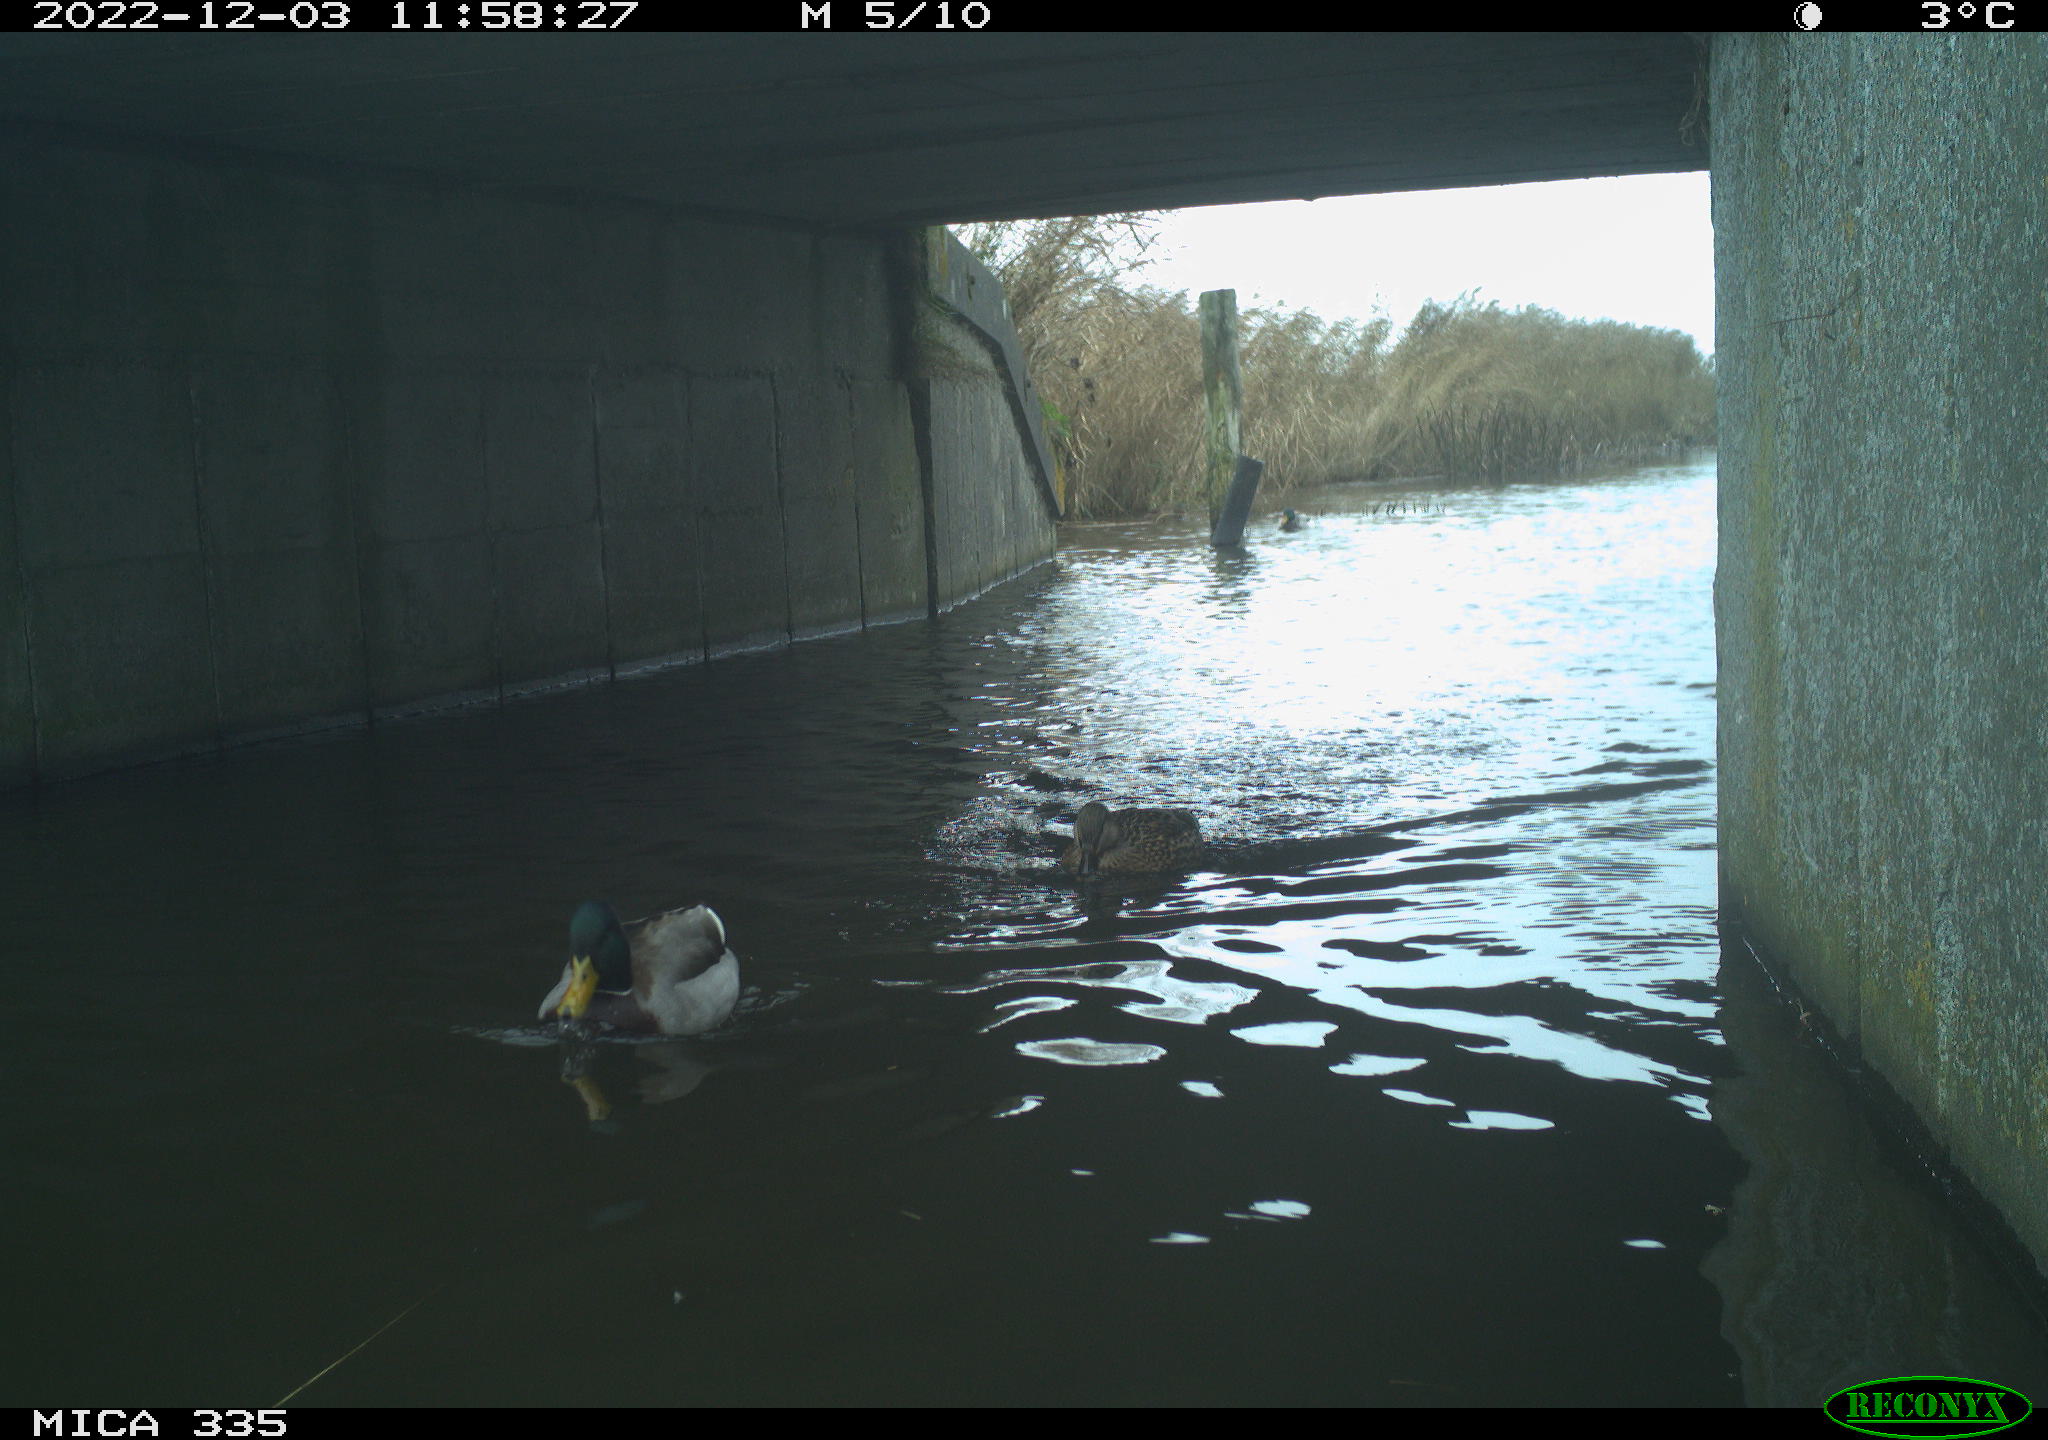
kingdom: Animalia
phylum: Chordata
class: Aves
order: Anseriformes
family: Anatidae
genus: Anas
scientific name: Anas
